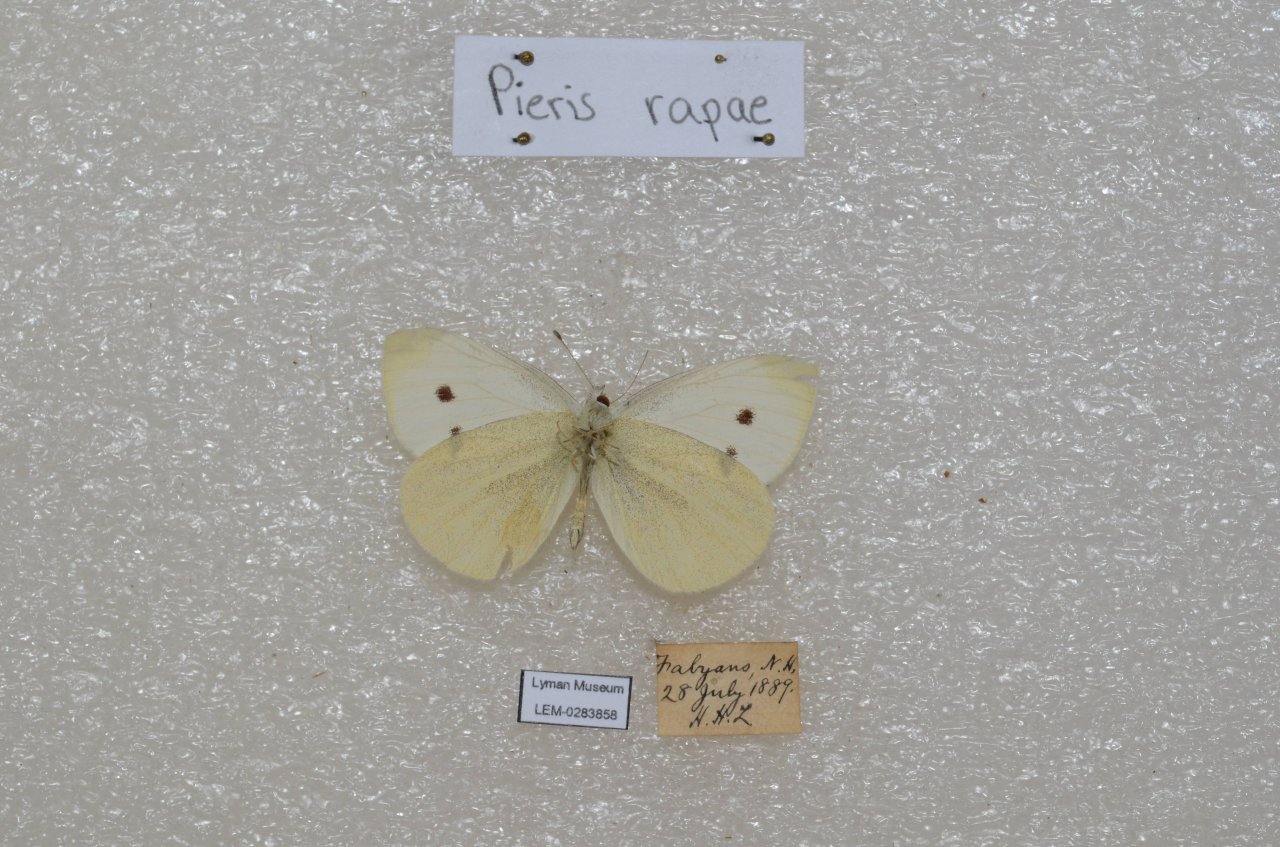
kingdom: Animalia
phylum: Arthropoda
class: Insecta
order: Lepidoptera
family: Pieridae
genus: Pieris
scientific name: Pieris rapae
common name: Cabbage White
